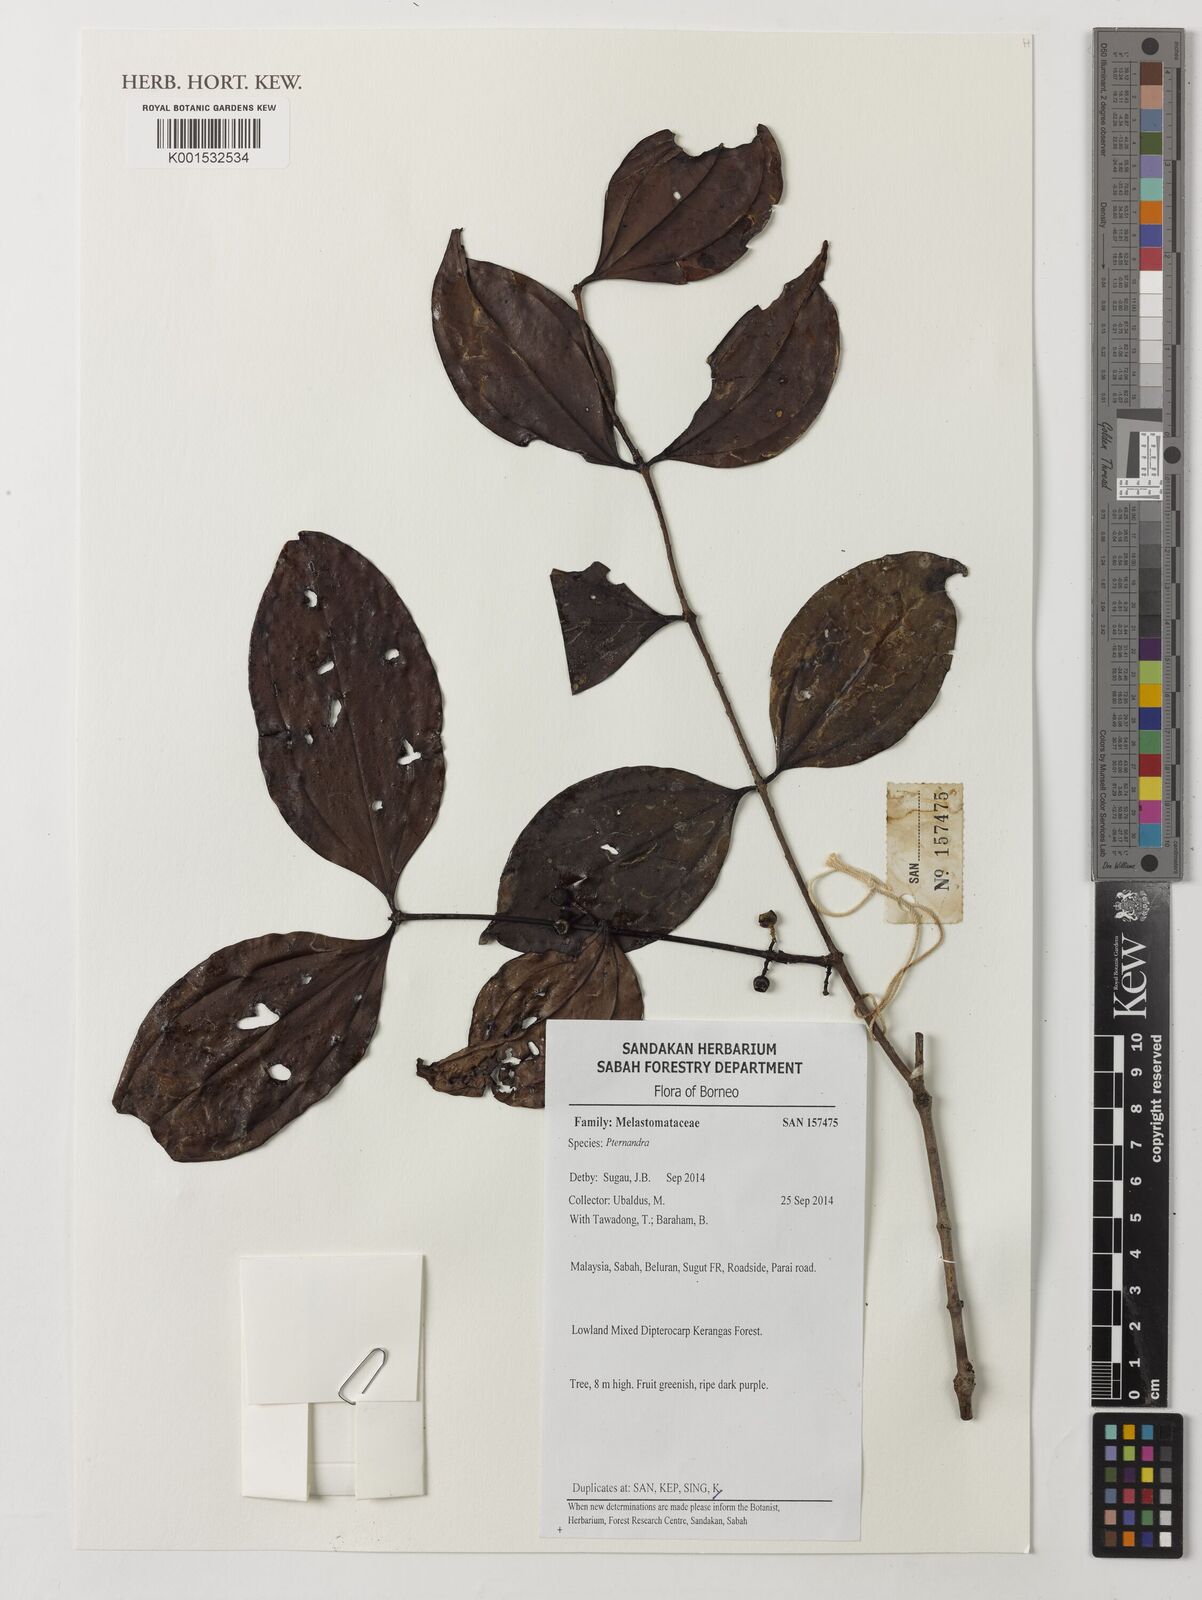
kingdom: Plantae
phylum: Tracheophyta
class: Magnoliopsida
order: Myrtales
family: Melastomataceae
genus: Pternandra
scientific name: Pternandra
